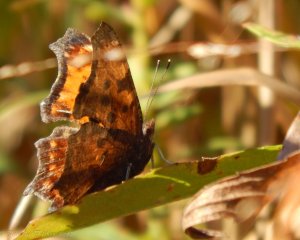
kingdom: Animalia
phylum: Arthropoda
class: Insecta
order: Lepidoptera
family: Nymphalidae
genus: Polygonia
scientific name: Polygonia comma
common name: Eastern Comma
